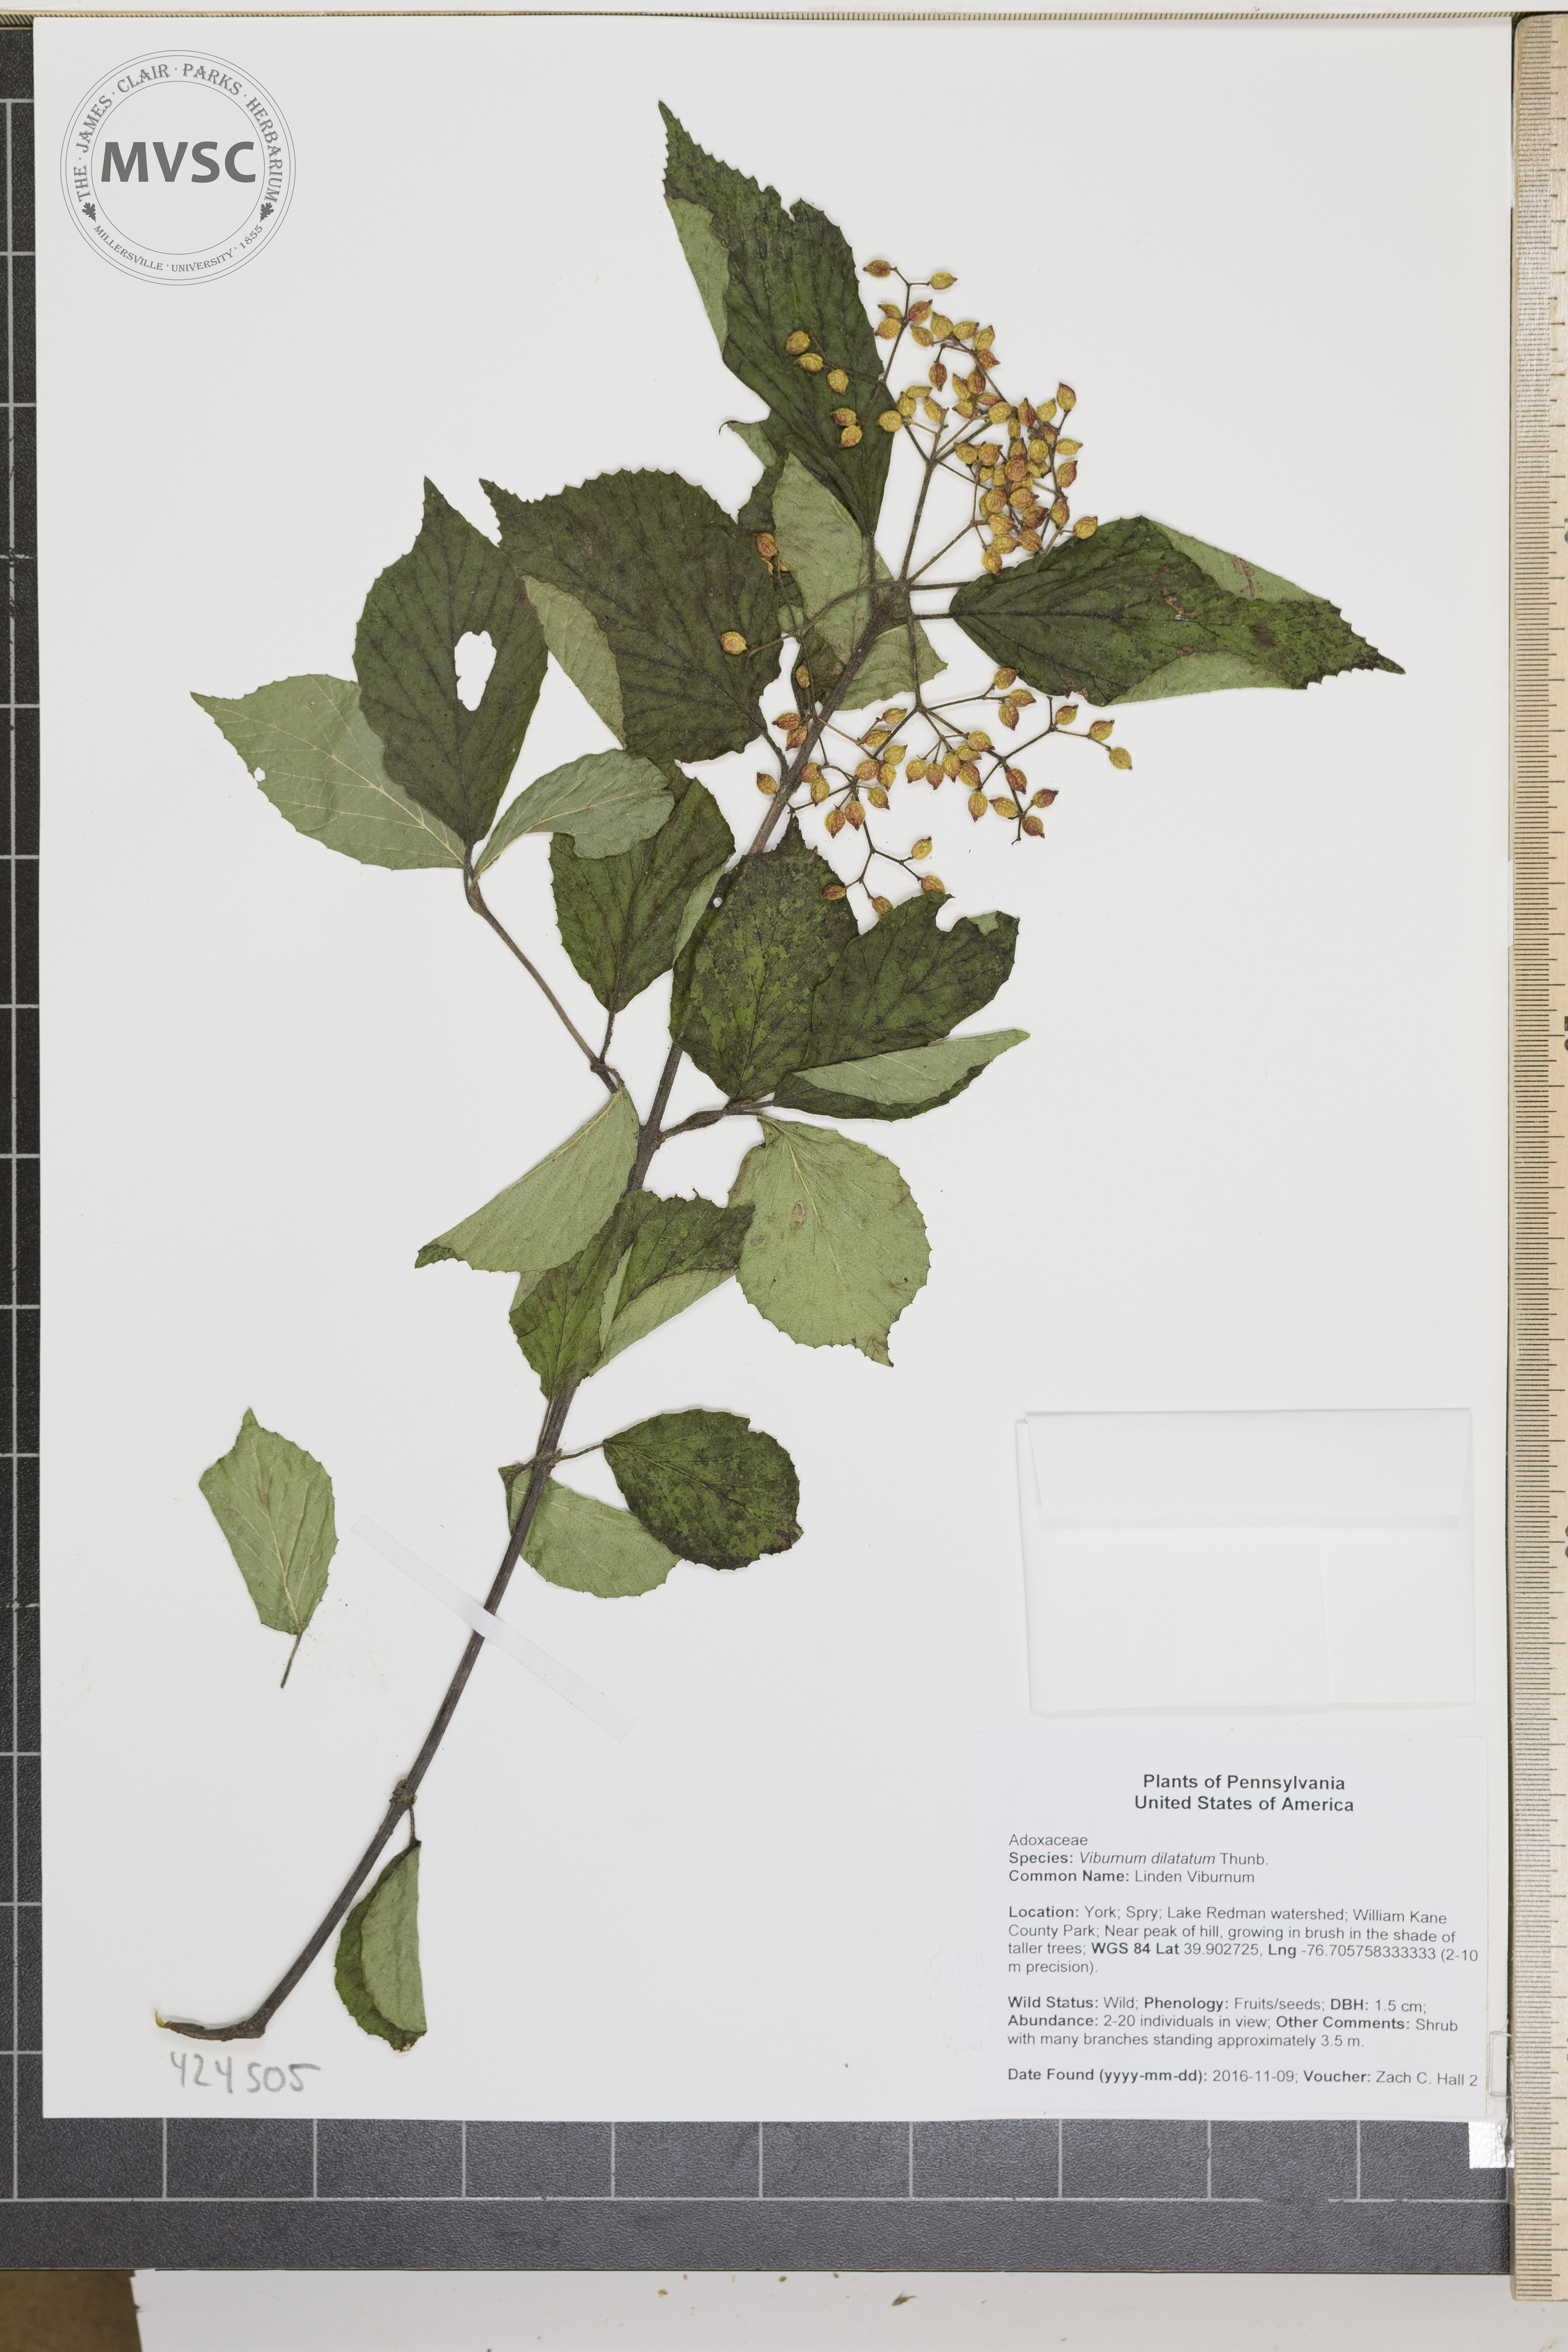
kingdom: Plantae
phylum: Tracheophyta
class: Magnoliopsida
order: Dipsacales
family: Viburnaceae
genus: Viburnum
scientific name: Viburnum dilatatum
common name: Linden Viburnum
